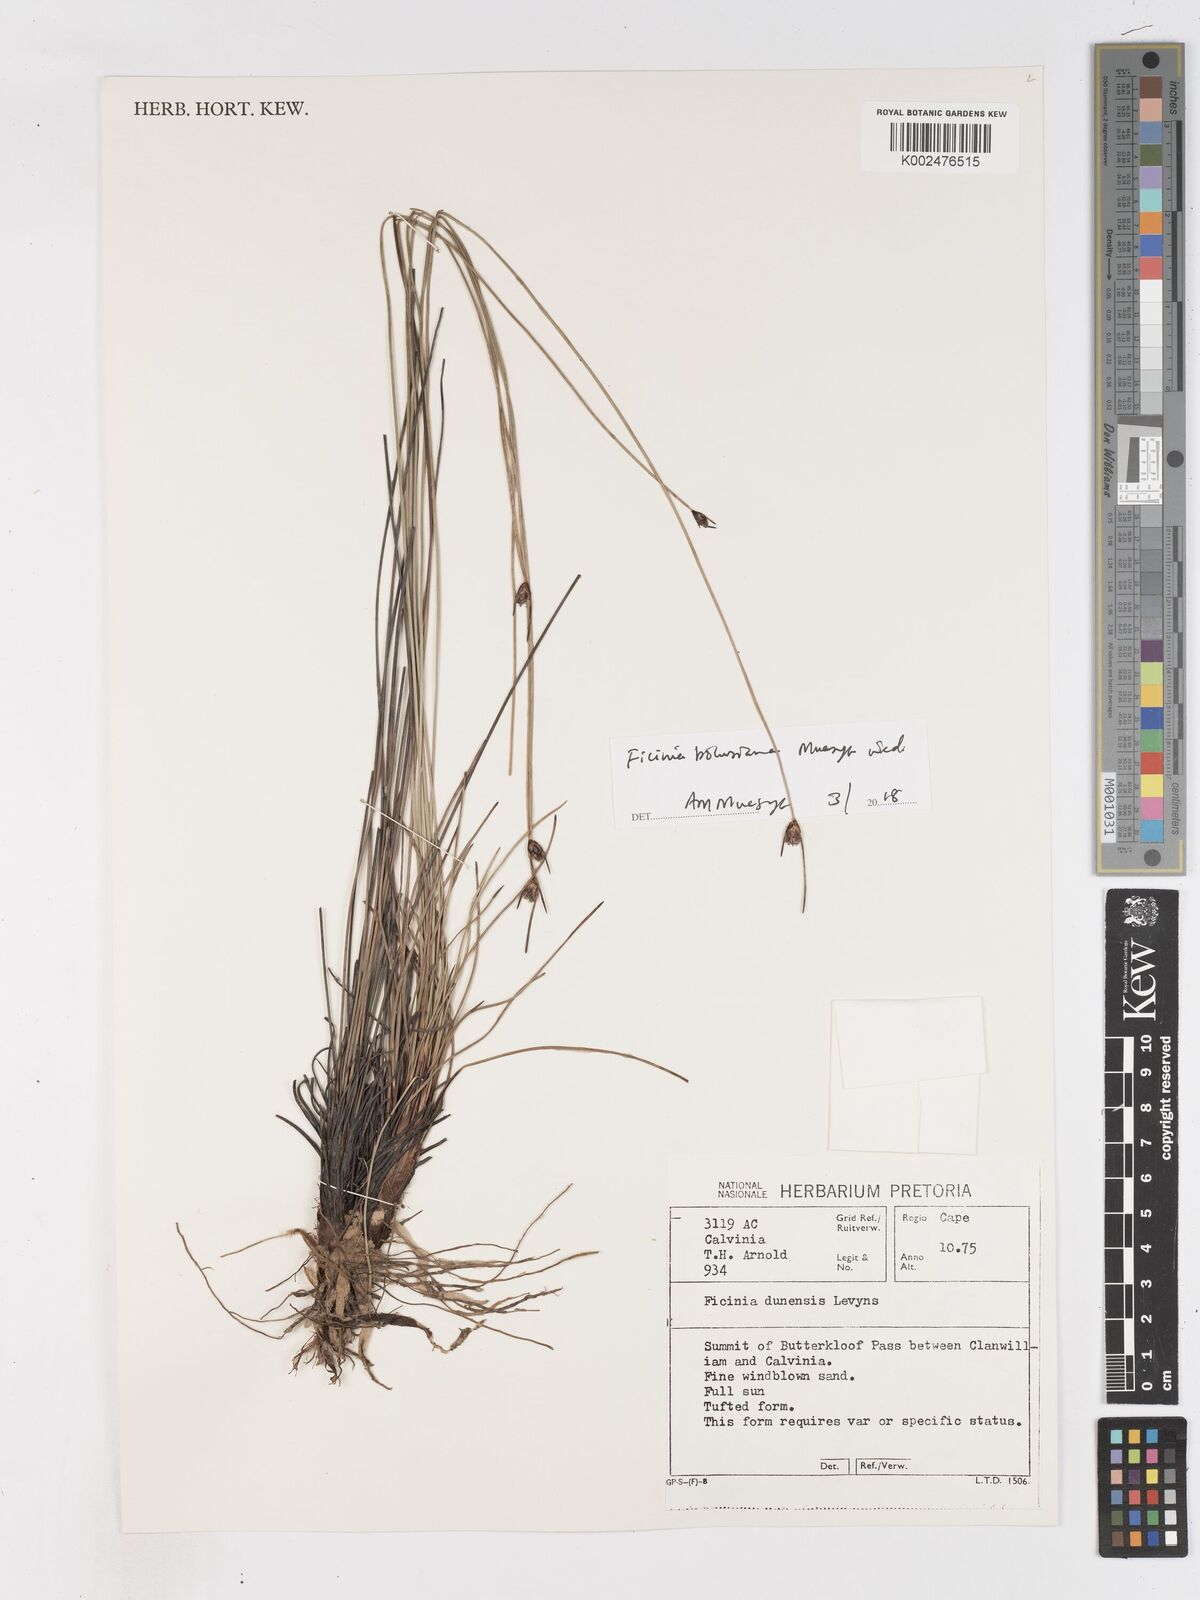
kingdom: Plantae
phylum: Tracheophyta
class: Liliopsida
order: Poales
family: Cyperaceae
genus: Ficinia
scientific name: Ficinia dunensis
